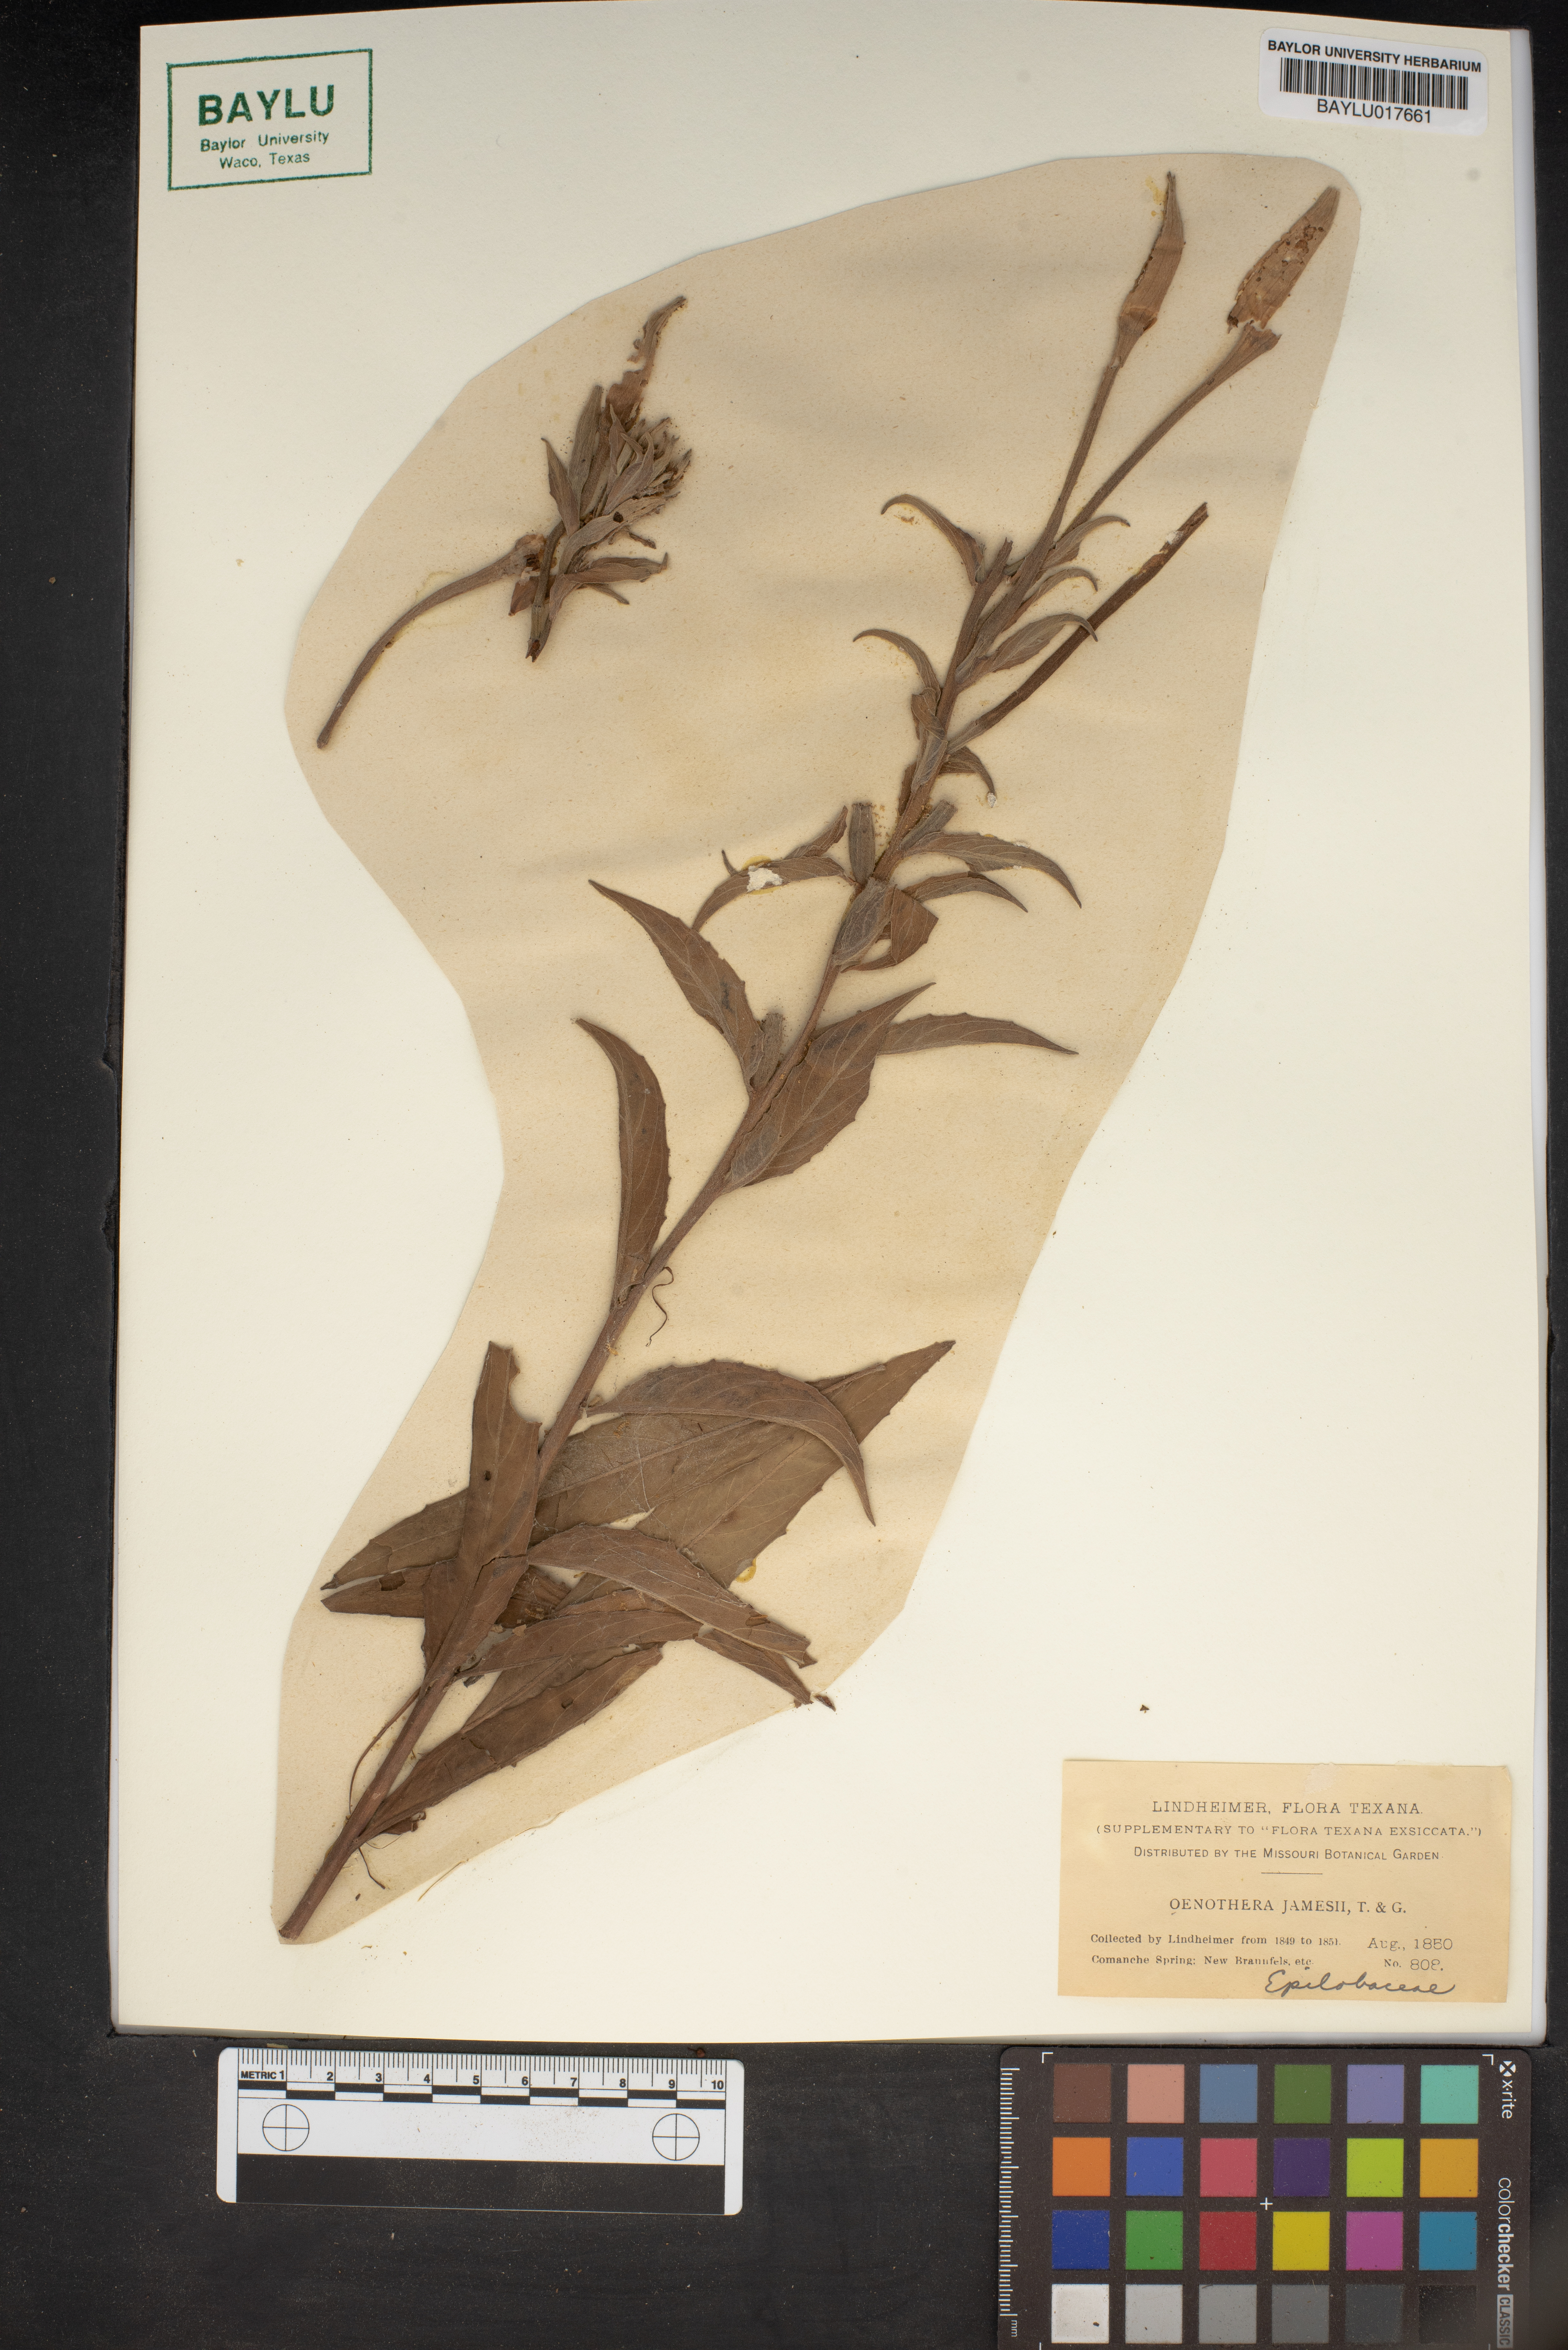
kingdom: Plantae
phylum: Tracheophyta
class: Magnoliopsida
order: Myrtales
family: Onagraceae
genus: Oenothera
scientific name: Oenothera jamesii
